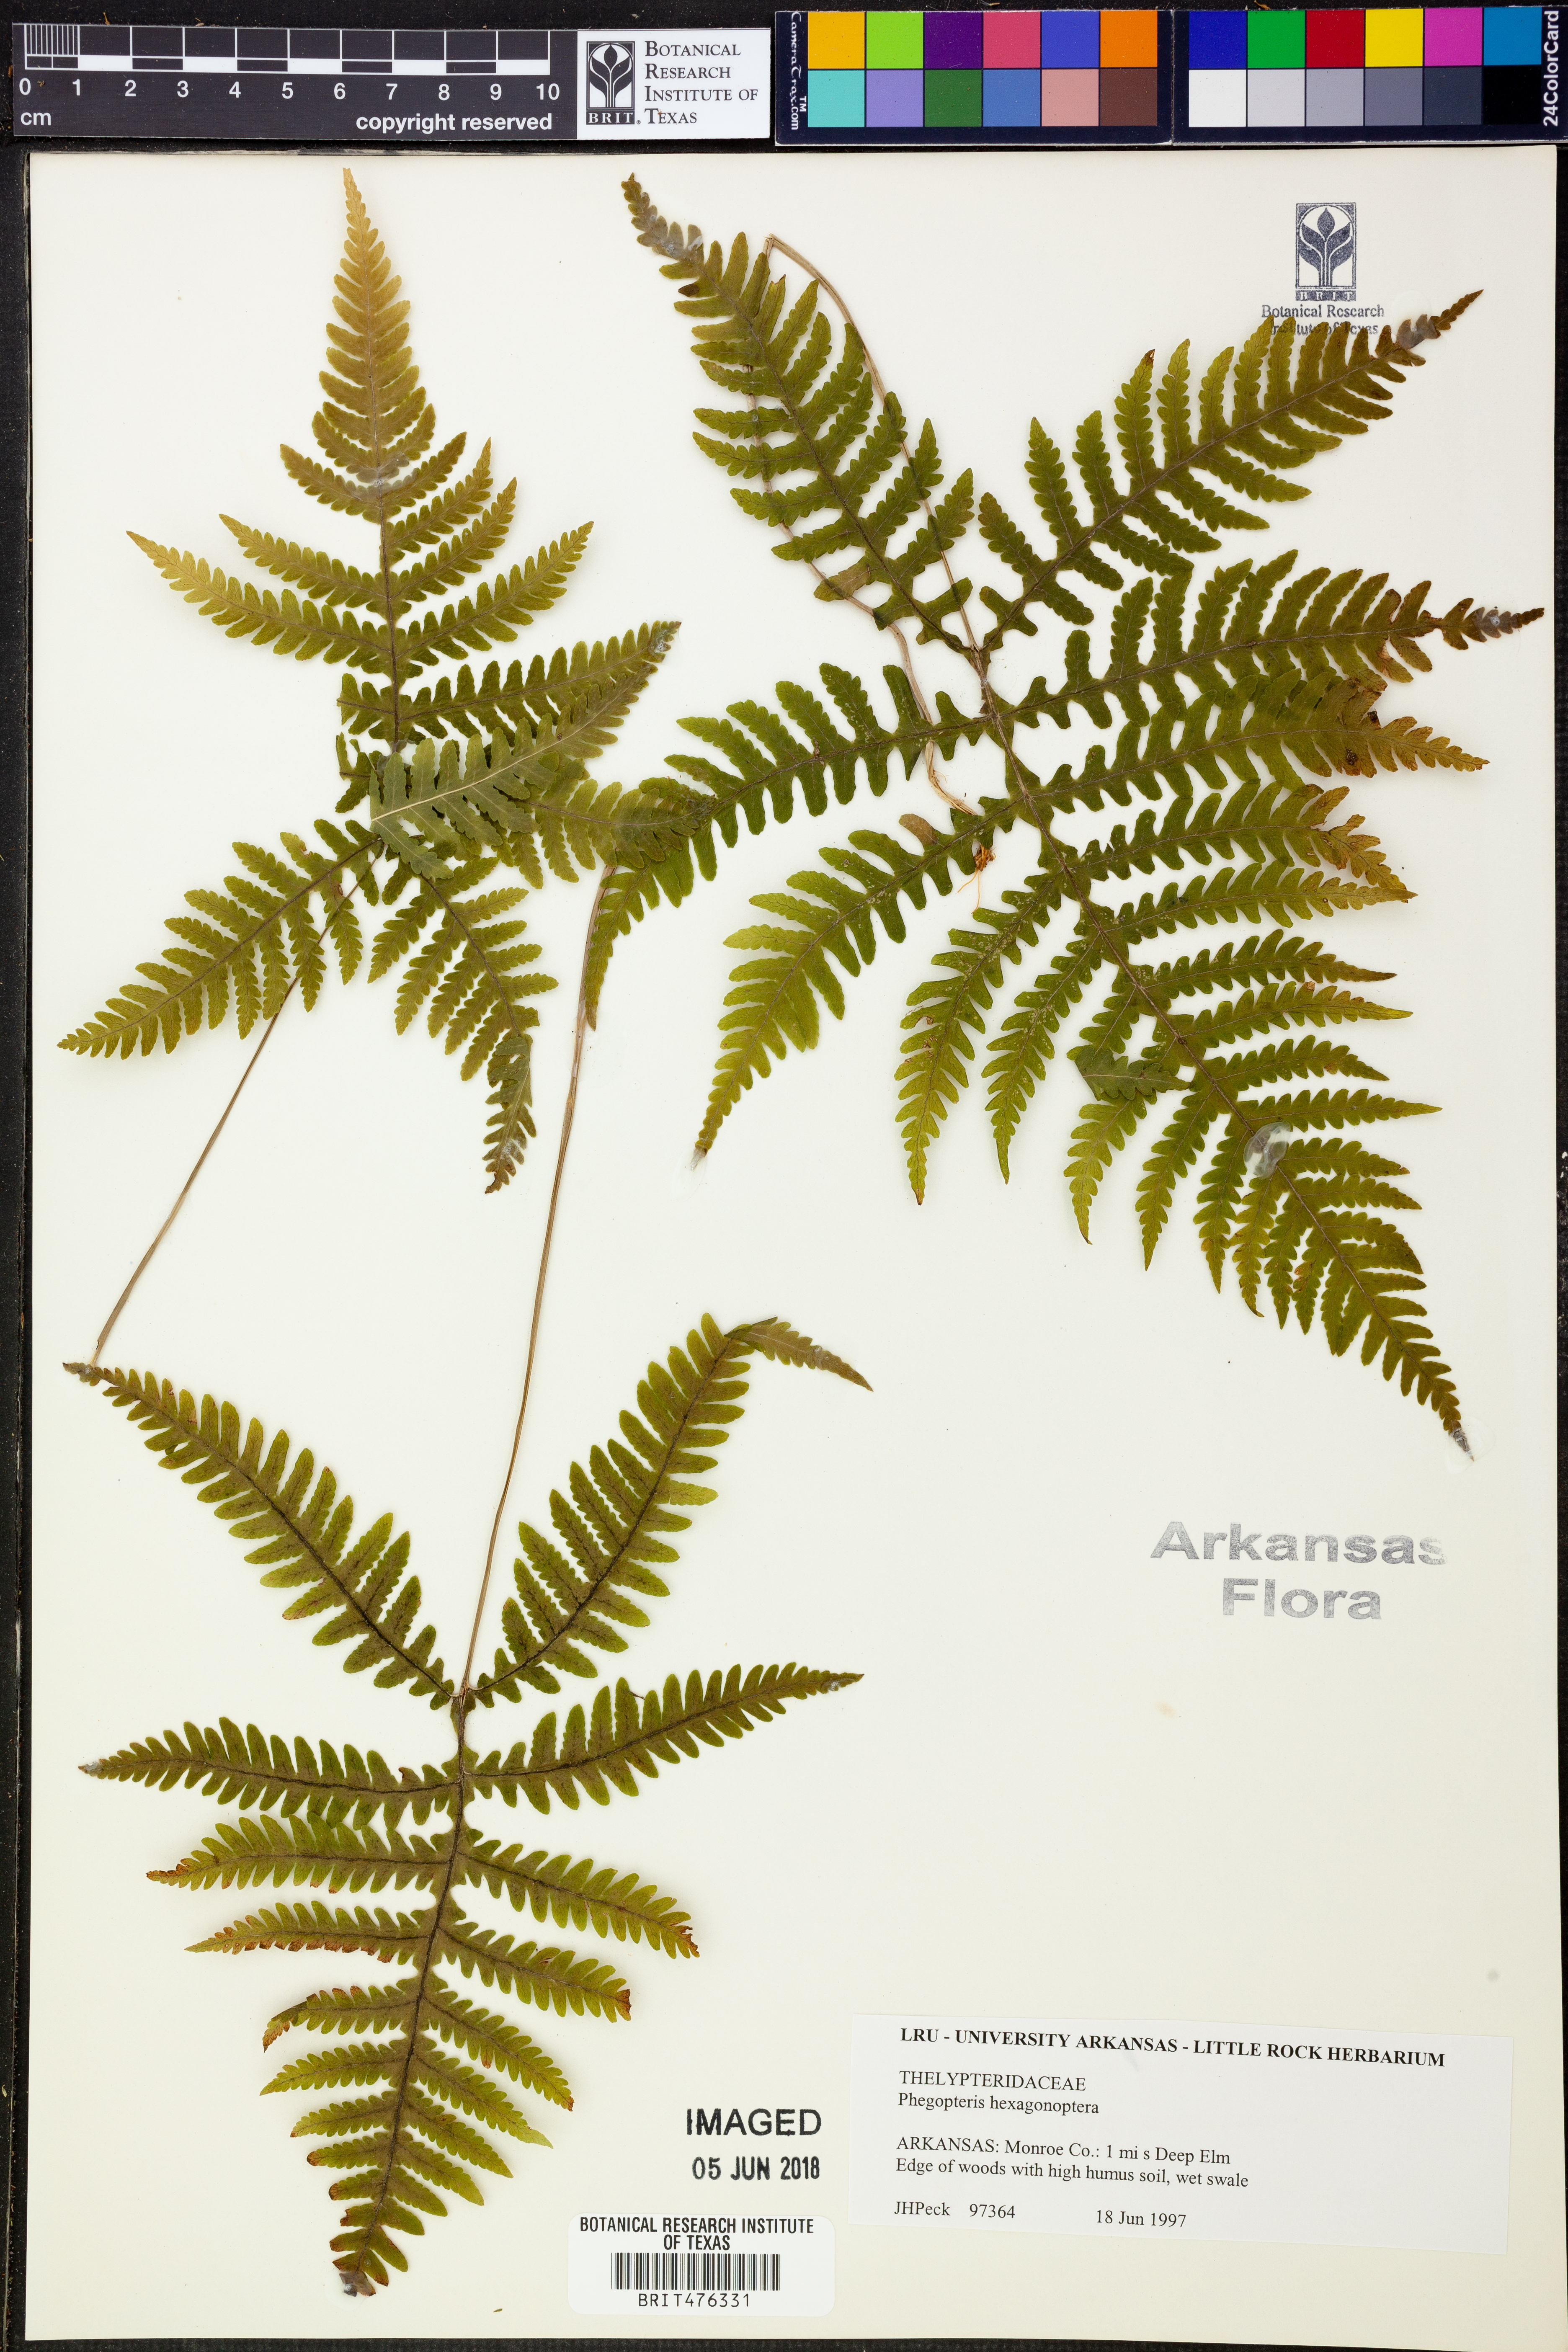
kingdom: Plantae
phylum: Tracheophyta
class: Polypodiopsida
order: Polypodiales
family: Thelypteridaceae
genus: Phegopteris
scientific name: Phegopteris hexagonoptera
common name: Broad beech fern
